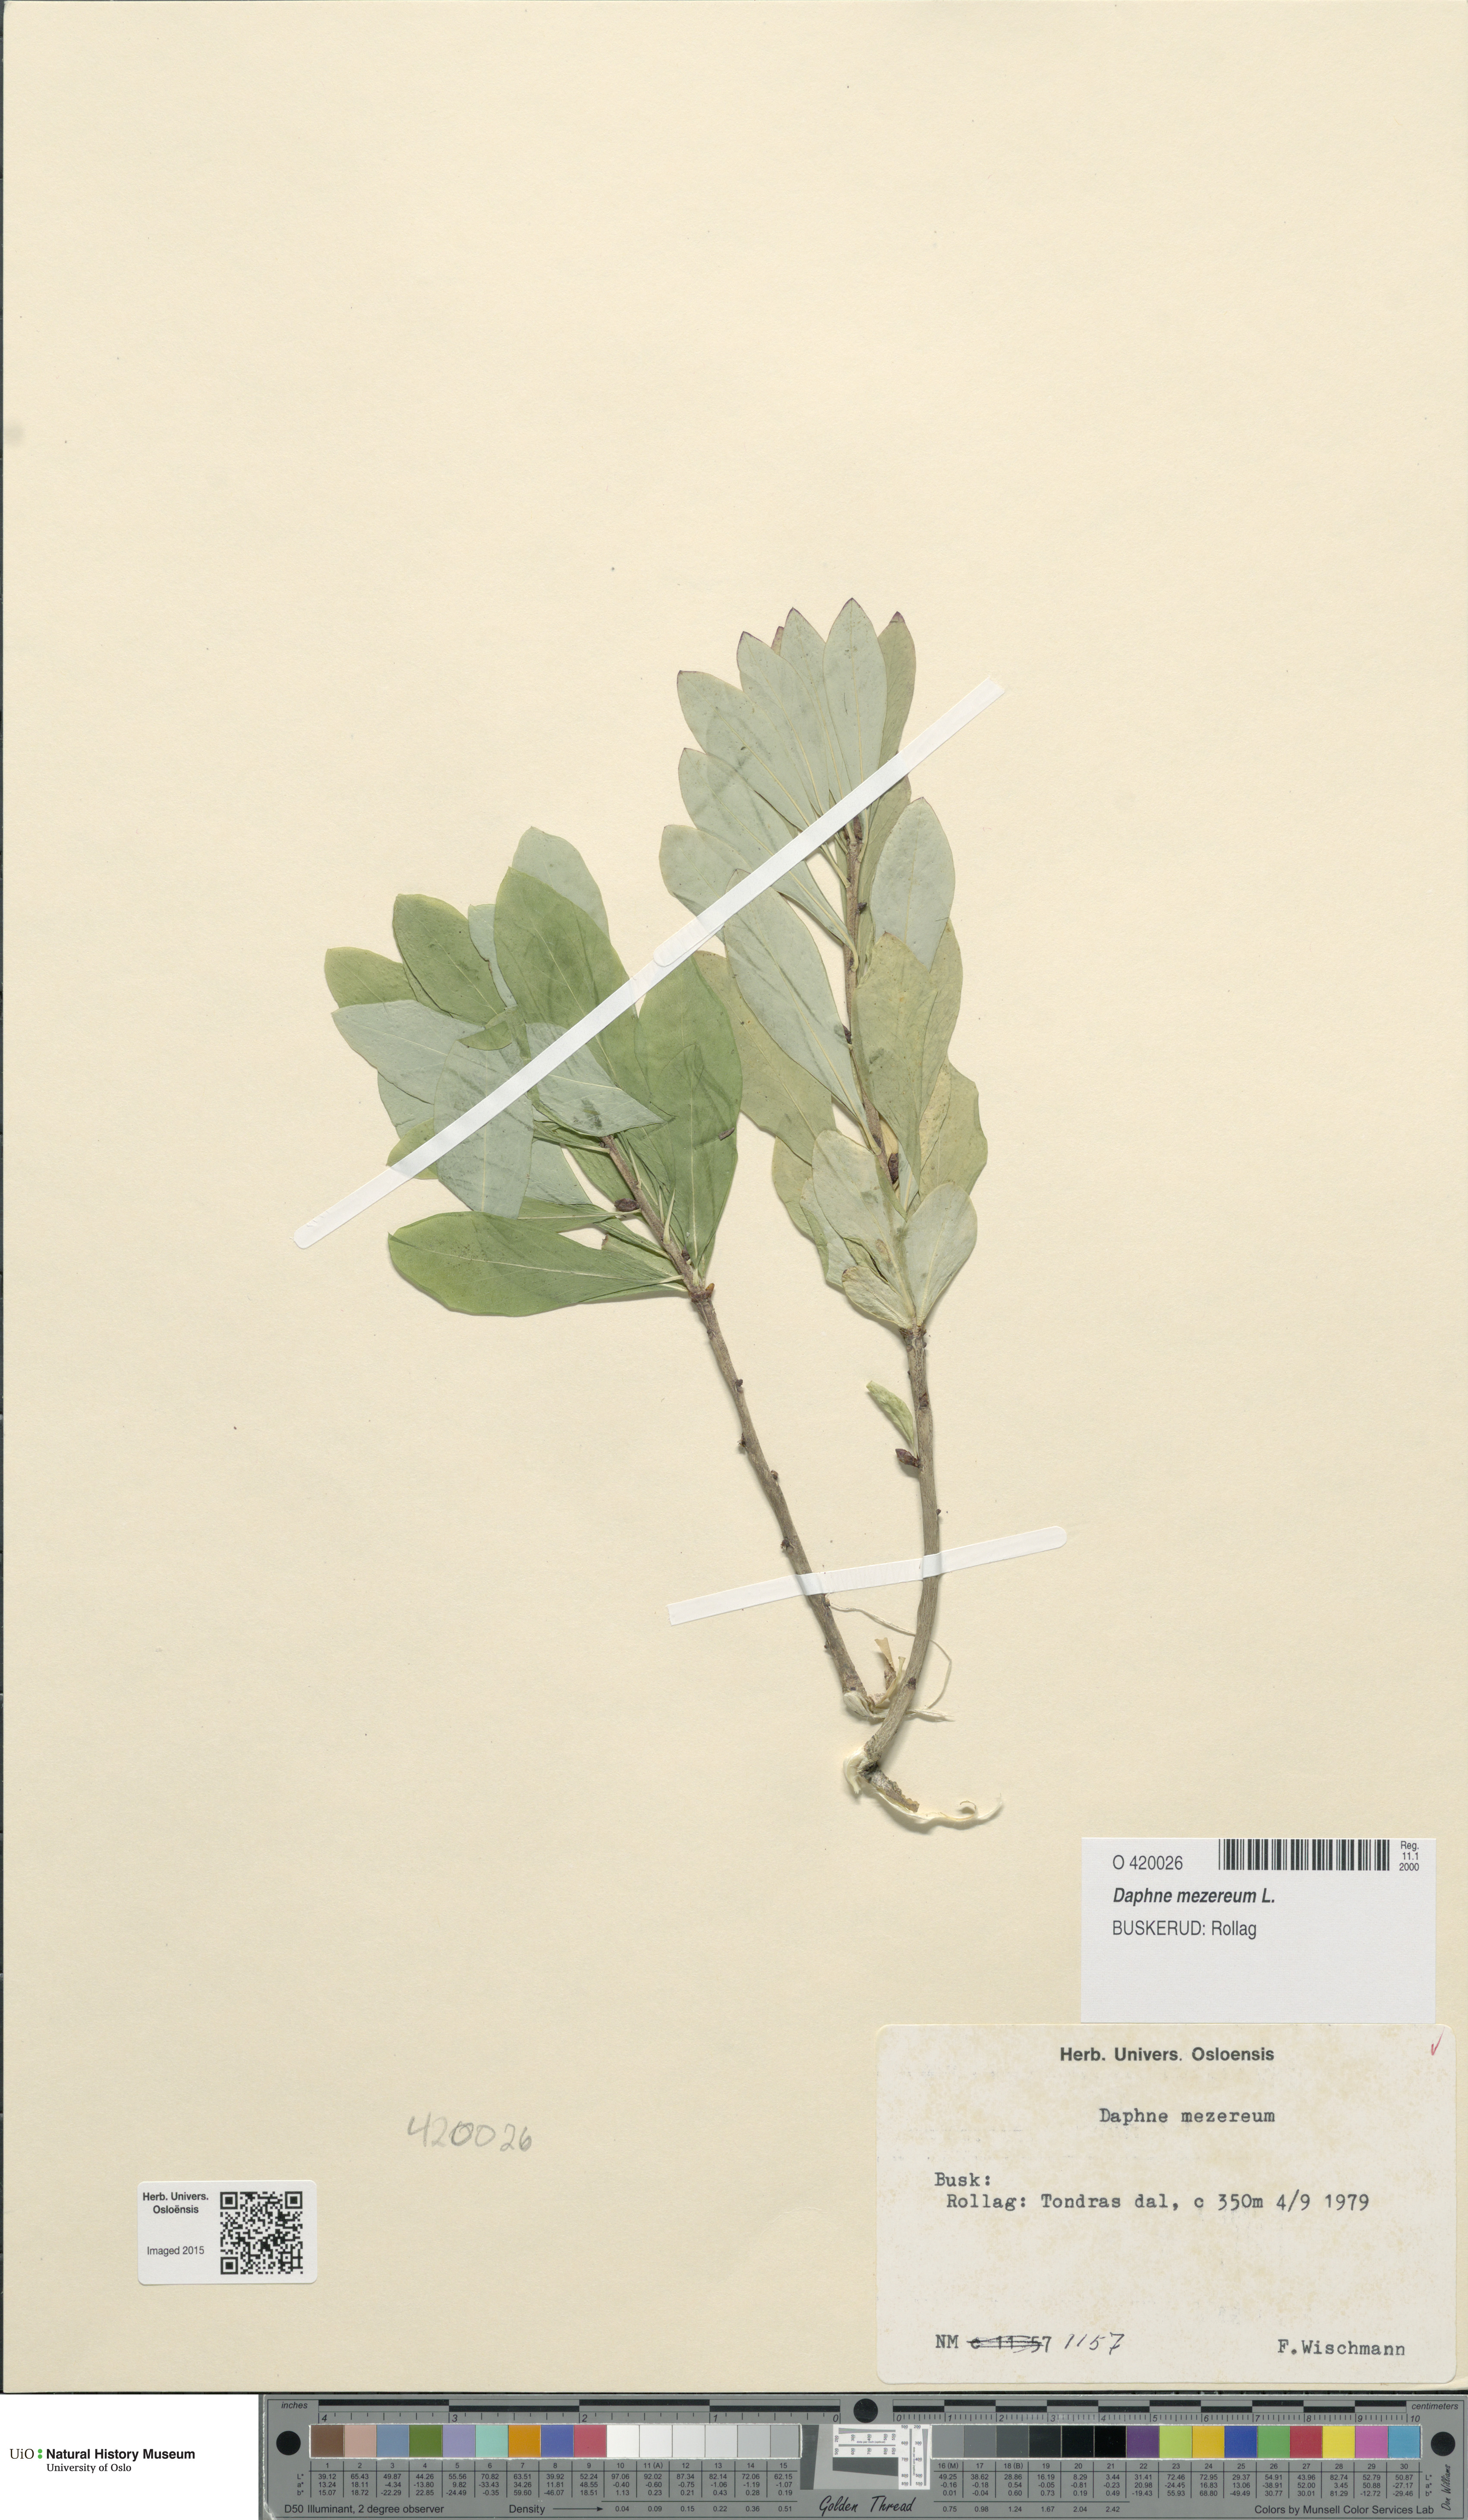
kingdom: Plantae
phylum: Tracheophyta
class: Magnoliopsida
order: Malvales
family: Thymelaeaceae
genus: Daphne
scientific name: Daphne mezereum
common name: Mezereon
